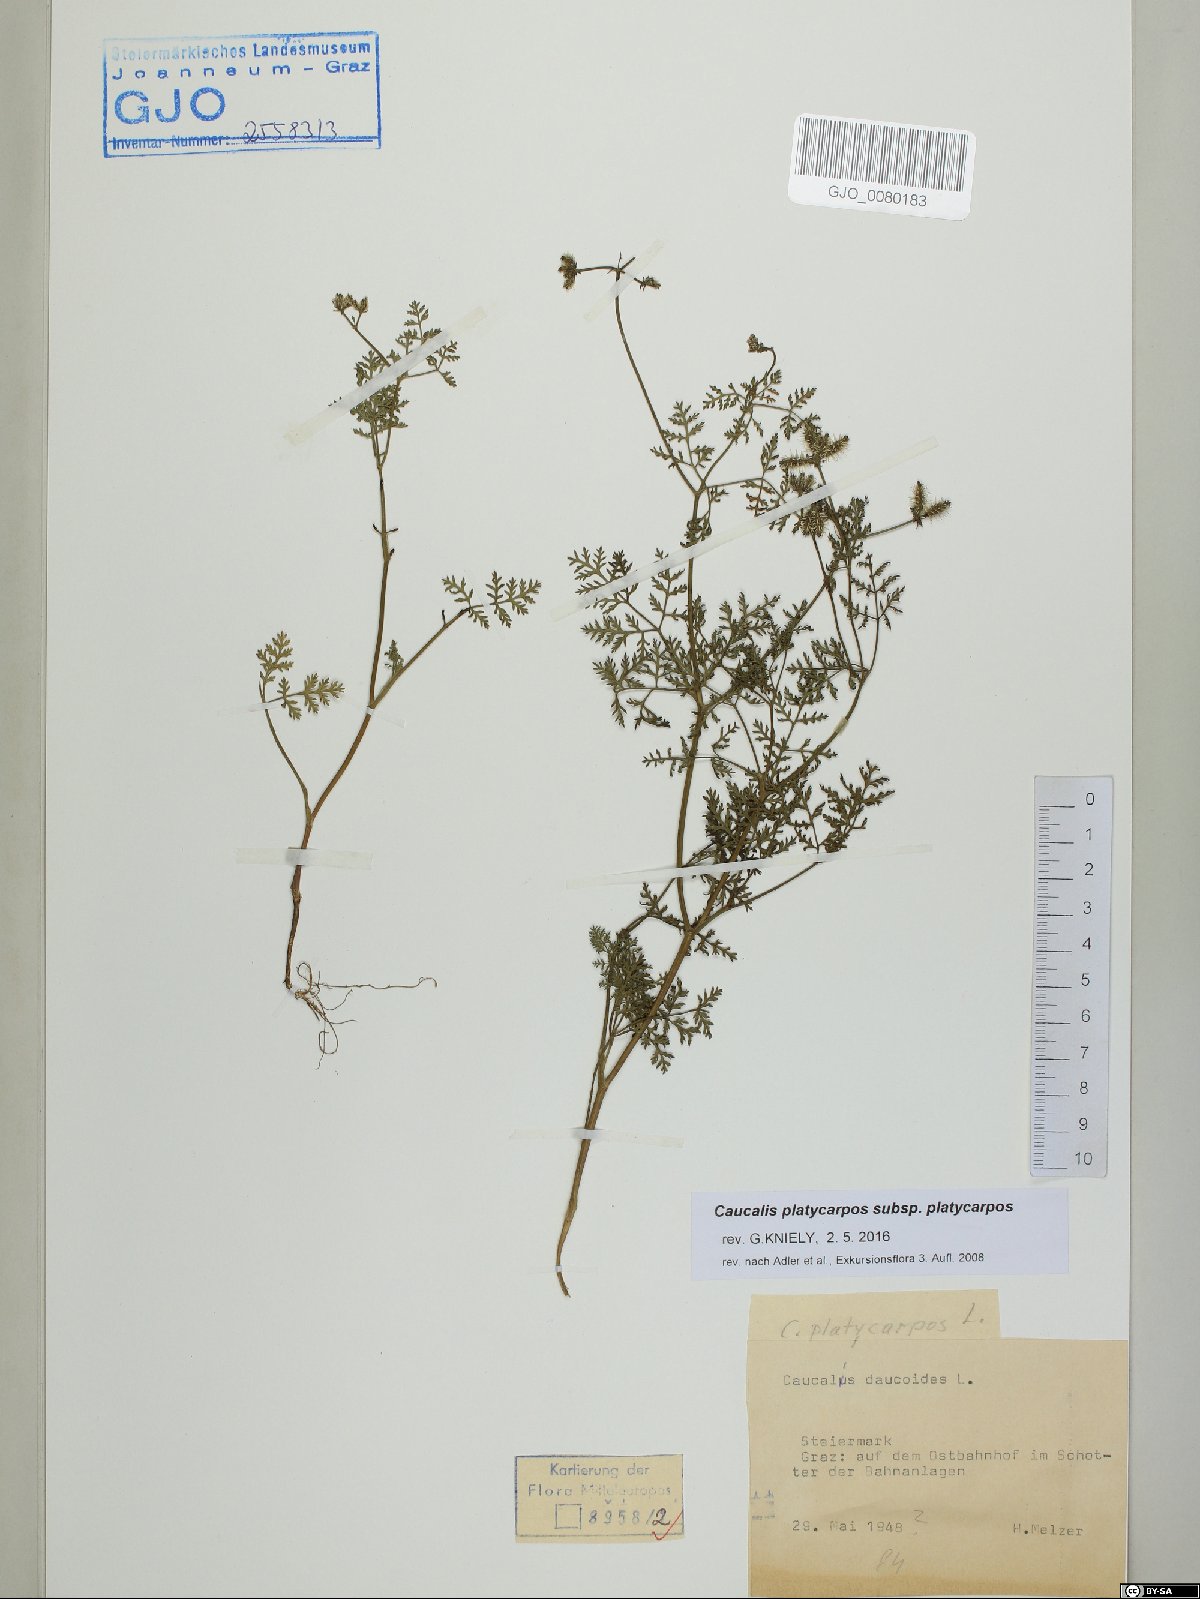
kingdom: Plantae
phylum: Tracheophyta
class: Magnoliopsida
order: Apiales
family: Apiaceae
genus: Caucalis
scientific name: Caucalis platycarpos
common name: Small bur-parsley
